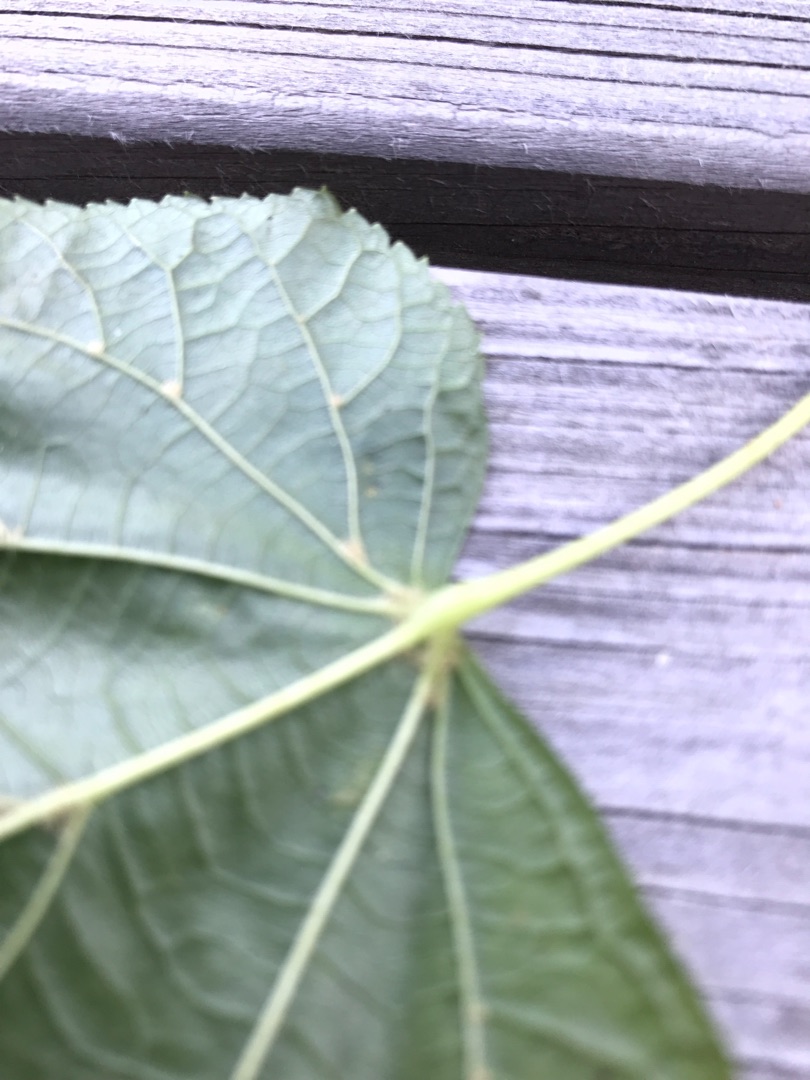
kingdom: Plantae
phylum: Tracheophyta
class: Magnoliopsida
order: Malvales
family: Malvaceae
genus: Tilia
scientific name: Tilia europaea
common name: Park-lind
